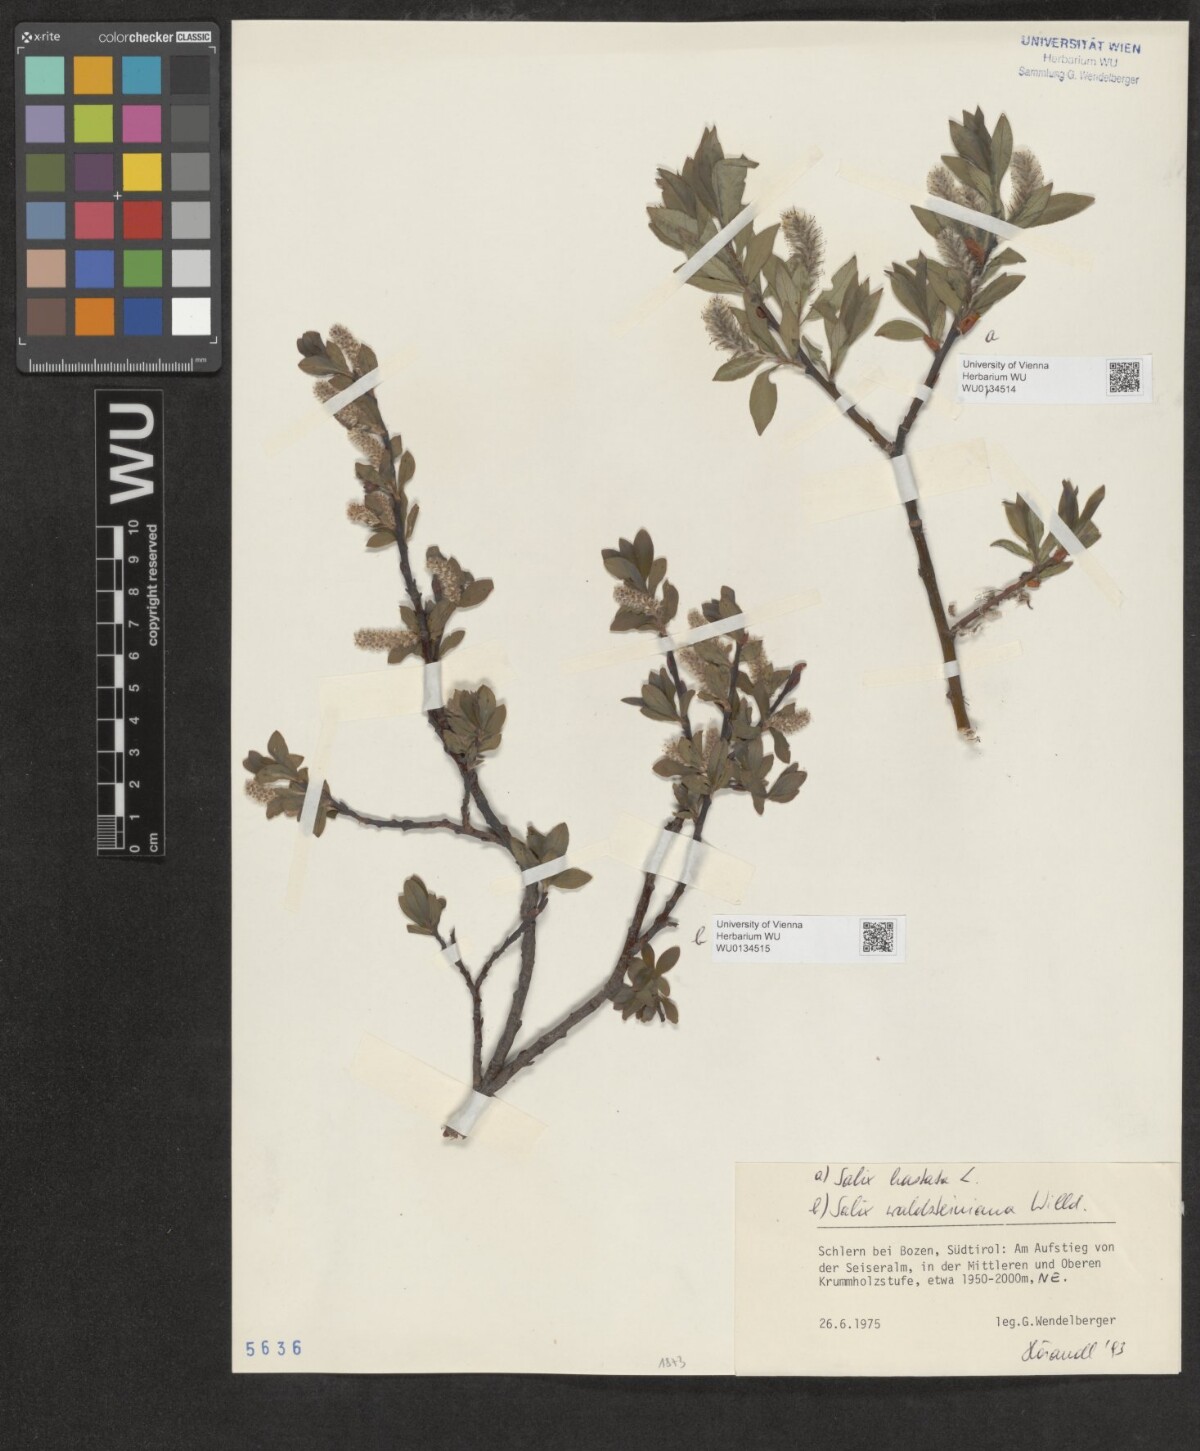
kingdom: Plantae
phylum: Tracheophyta
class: Magnoliopsida
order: Malpighiales
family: Salicaceae
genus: Salix
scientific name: Salix hastata
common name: Halberd willow
